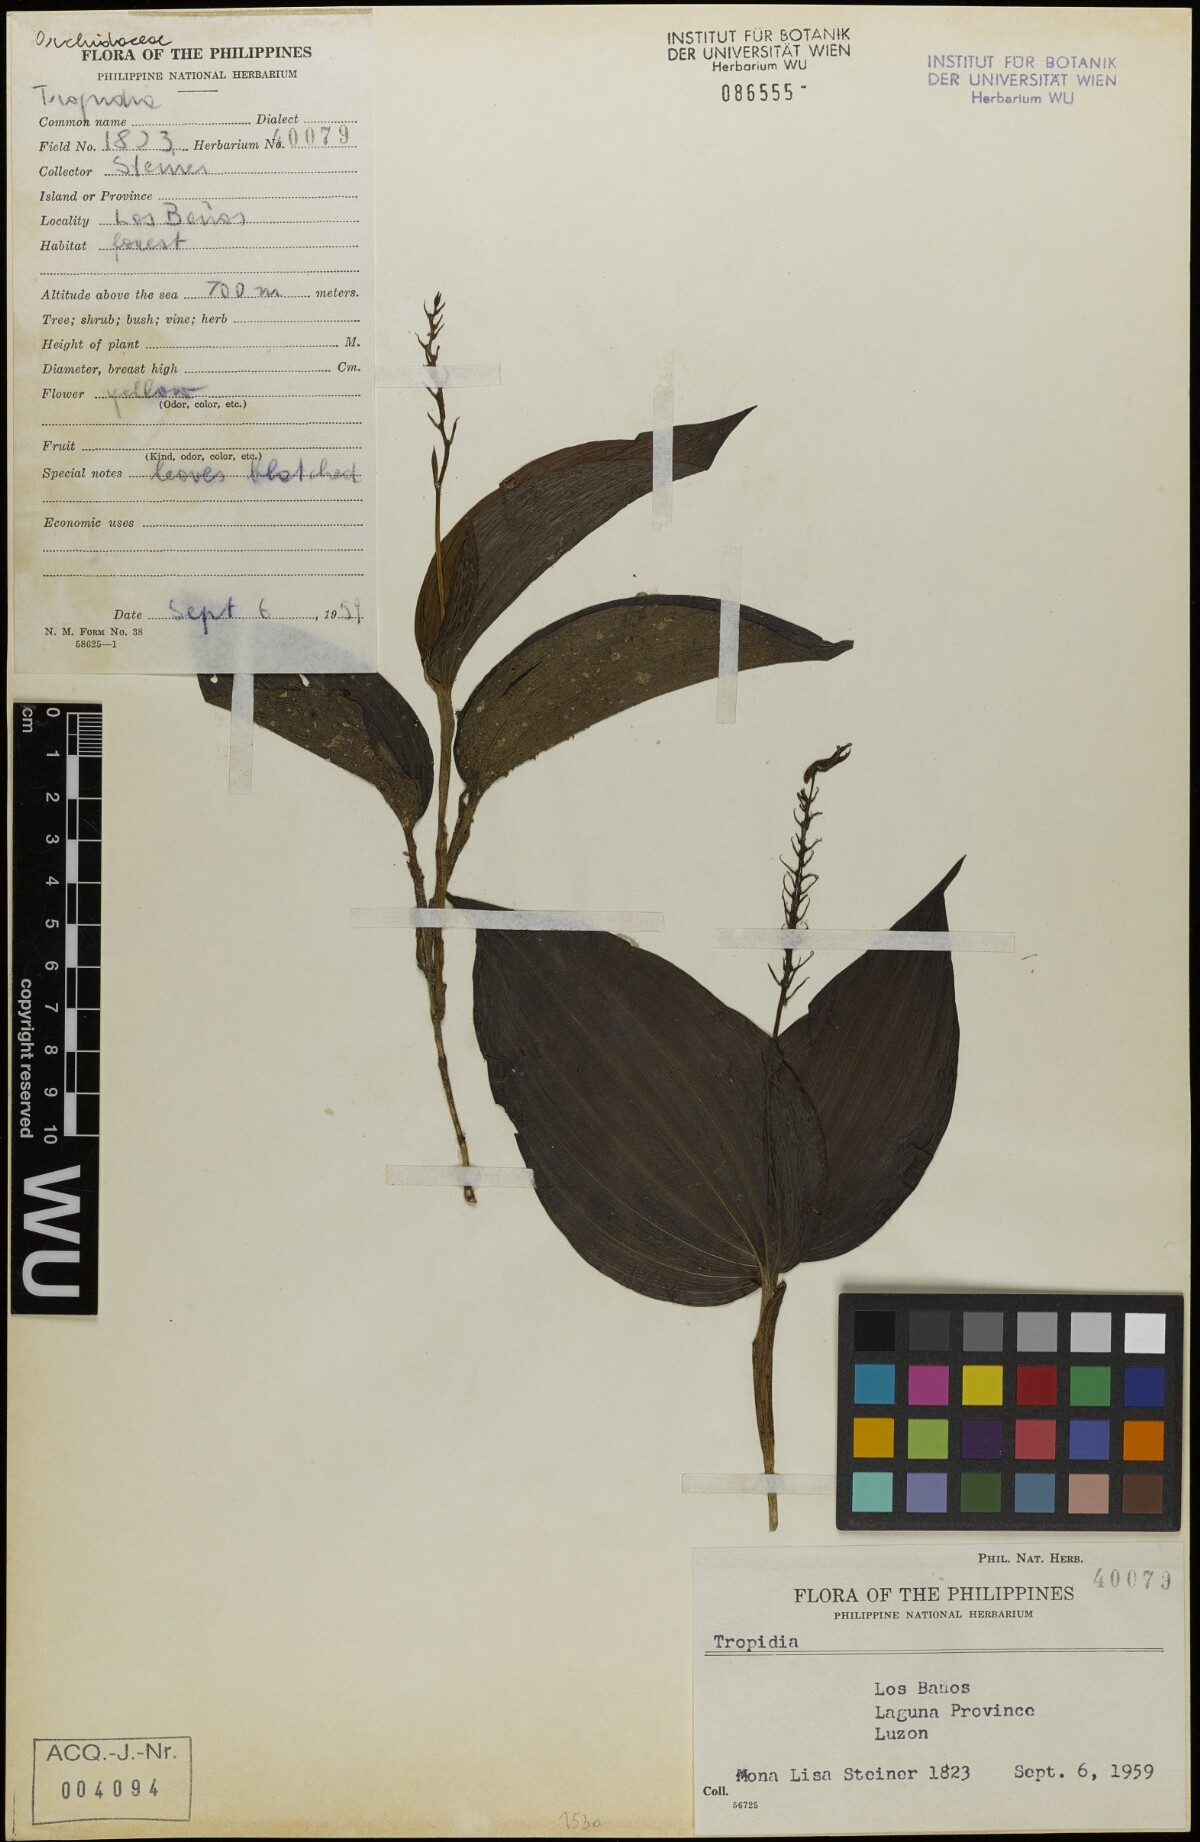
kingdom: Plantae
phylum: Tracheophyta
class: Liliopsida
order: Asparagales
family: Orchidaceae
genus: Tropidia
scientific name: Tropidia
